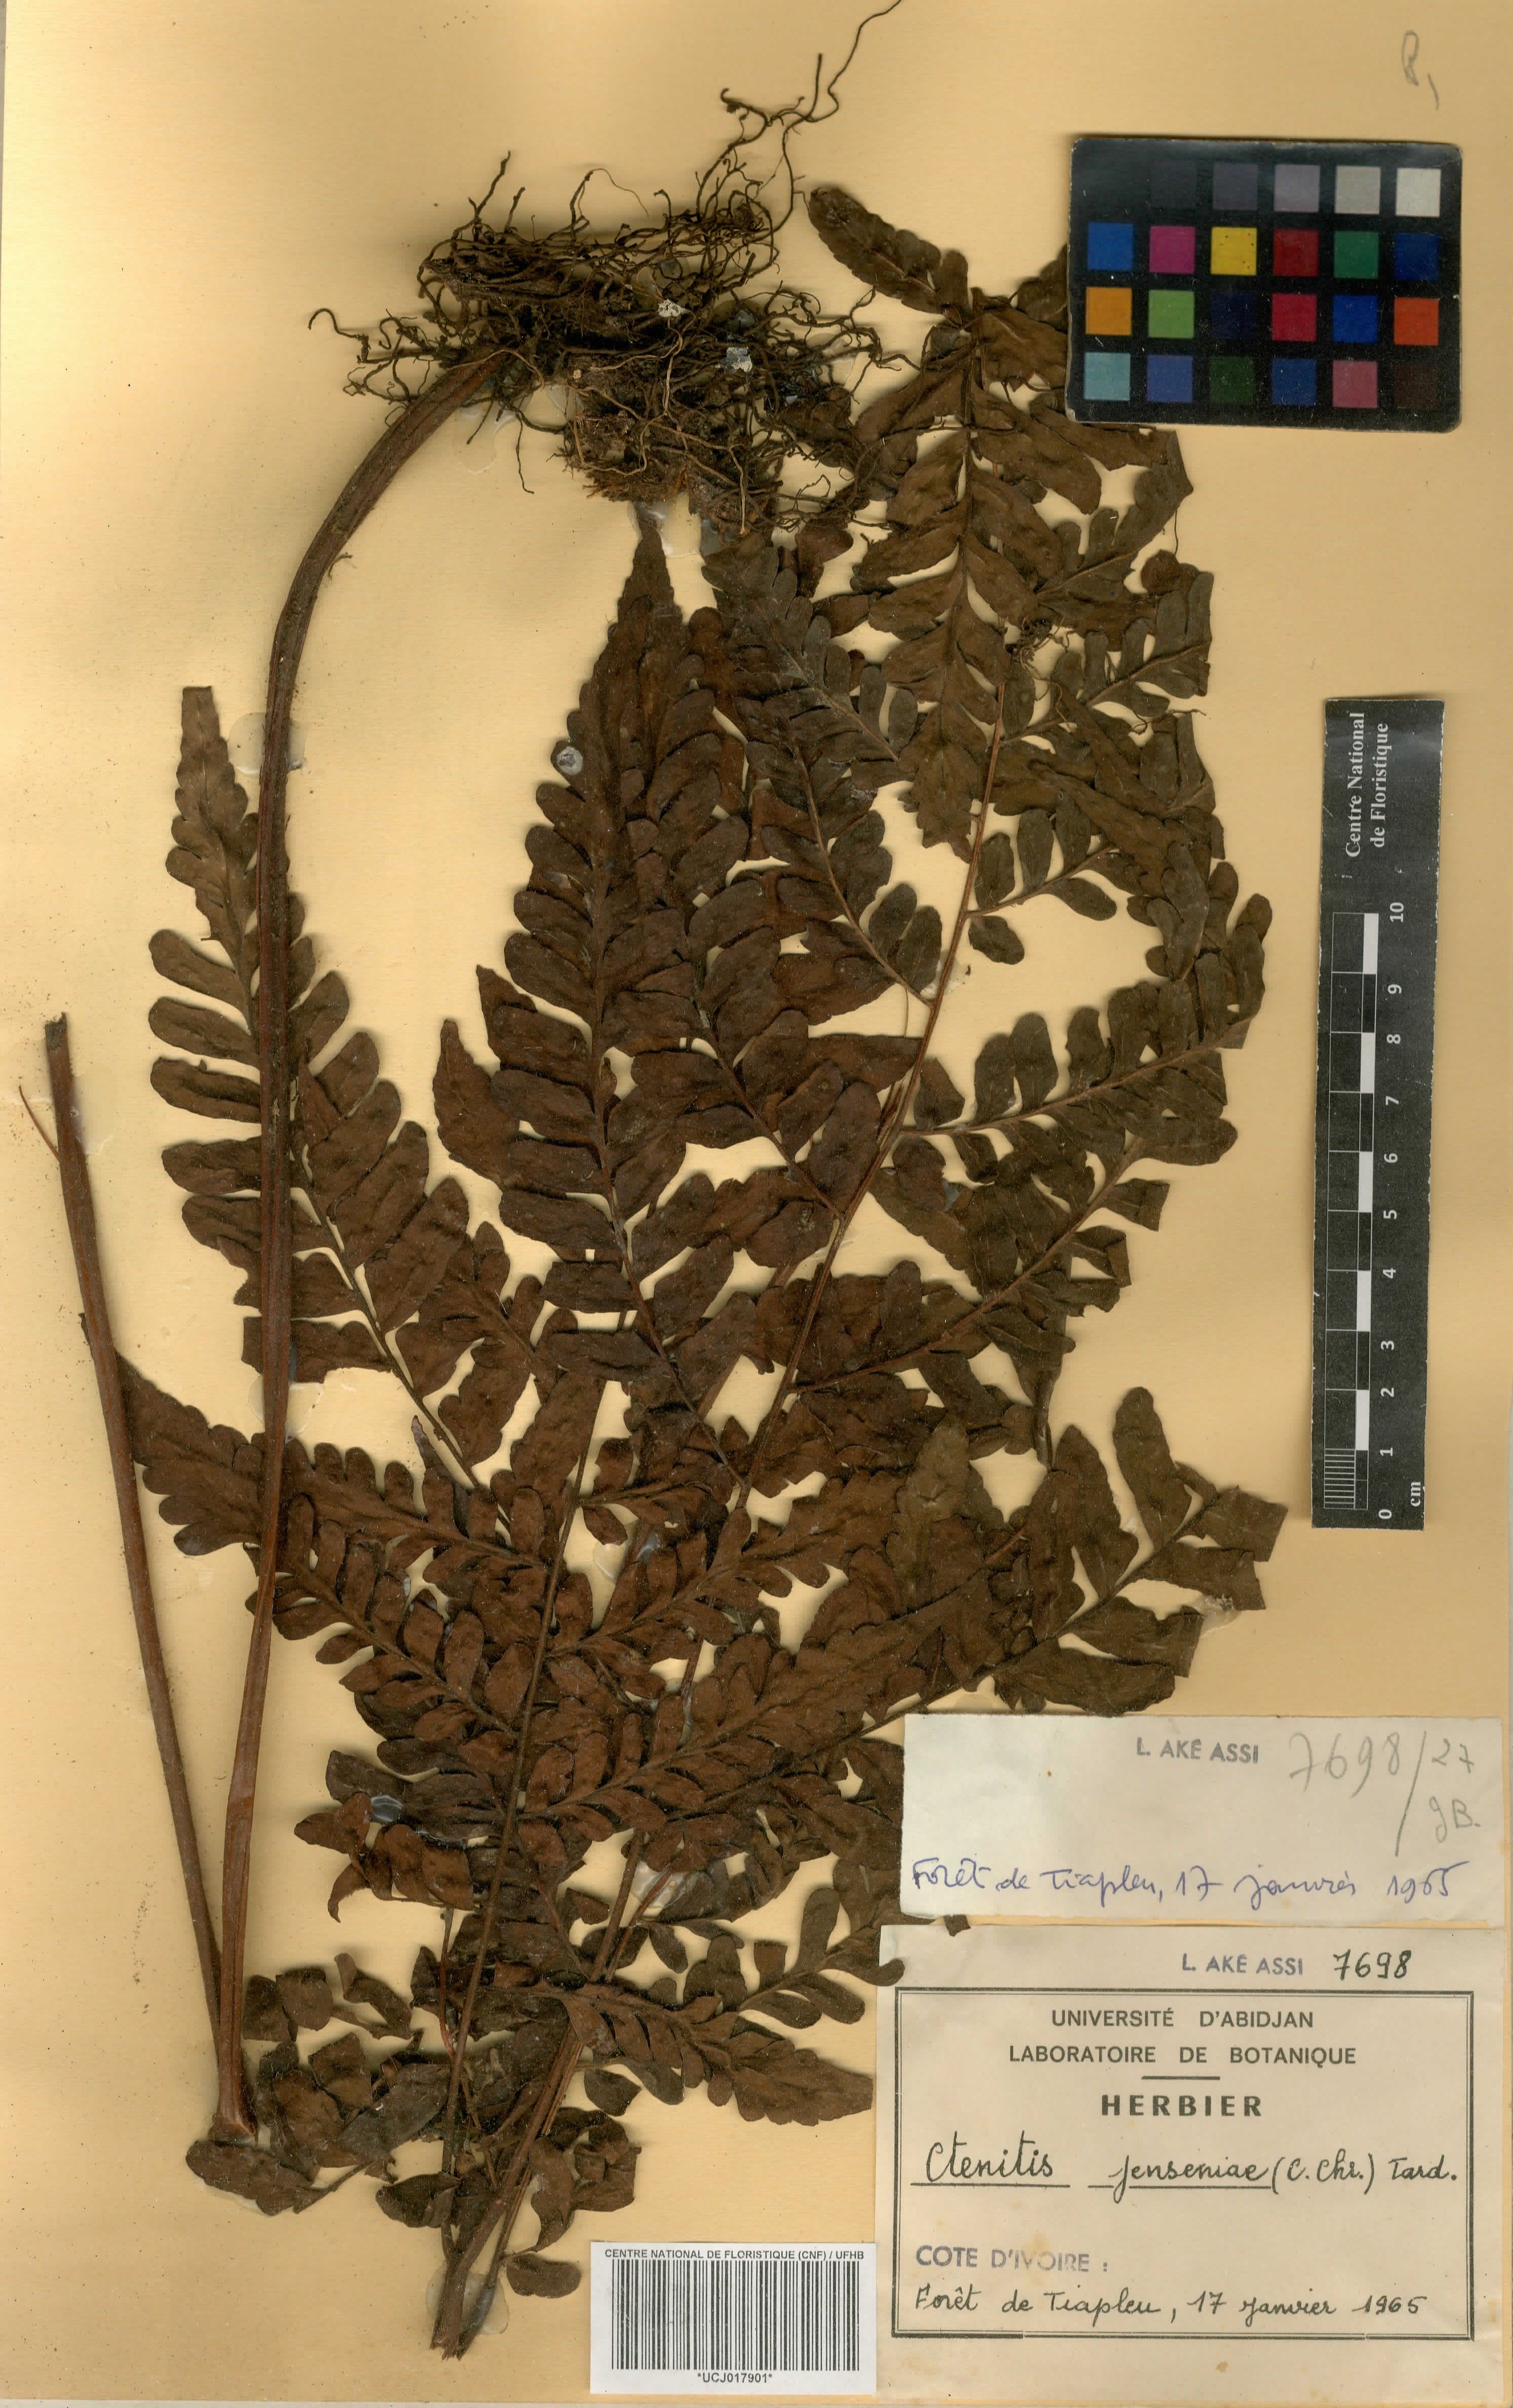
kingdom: Plantae
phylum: Tracheophyta
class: Polypodiopsida
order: Polypodiales
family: Tectariaceae
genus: Triplophyllum
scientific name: Triplophyllum jenseniae
